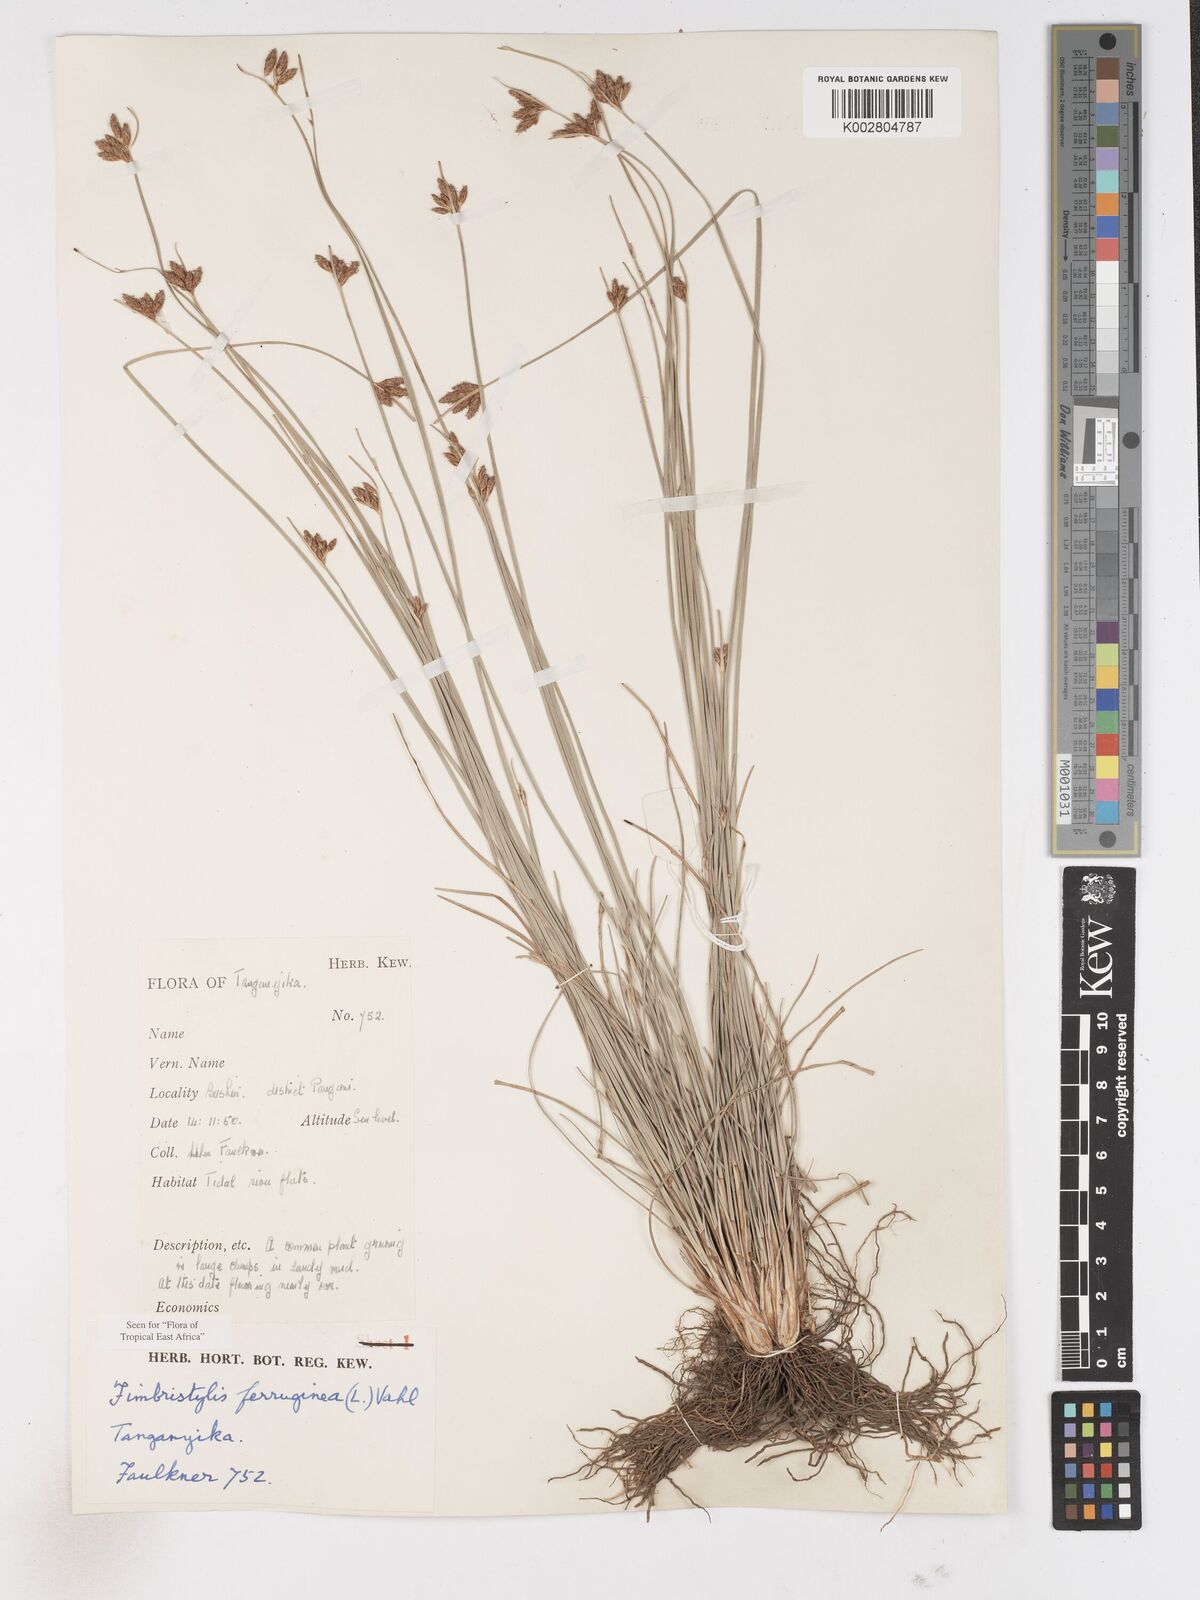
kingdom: Plantae
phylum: Tracheophyta
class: Liliopsida
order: Poales
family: Cyperaceae
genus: Fimbristylis
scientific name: Fimbristylis ferruginea
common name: West indian fimbry
